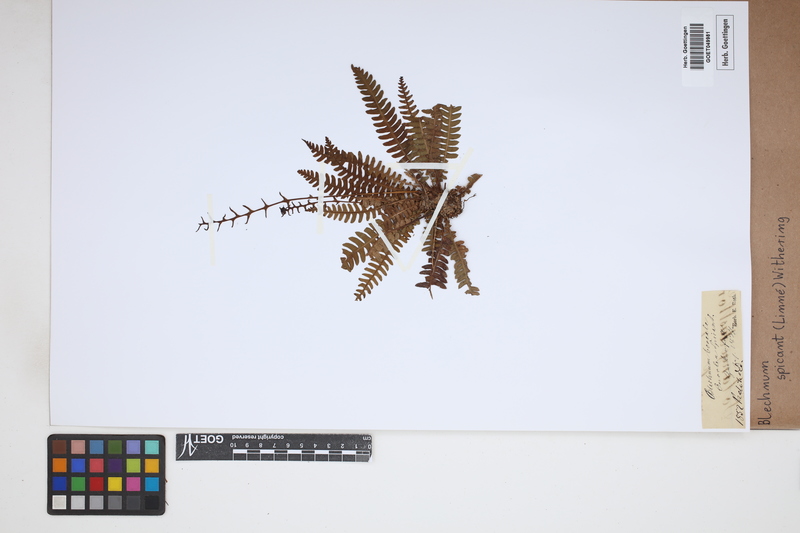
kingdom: Plantae
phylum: Tracheophyta
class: Polypodiopsida
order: Polypodiales
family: Blechnaceae
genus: Struthiopteris
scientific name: Struthiopteris spicant
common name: Deer fern
